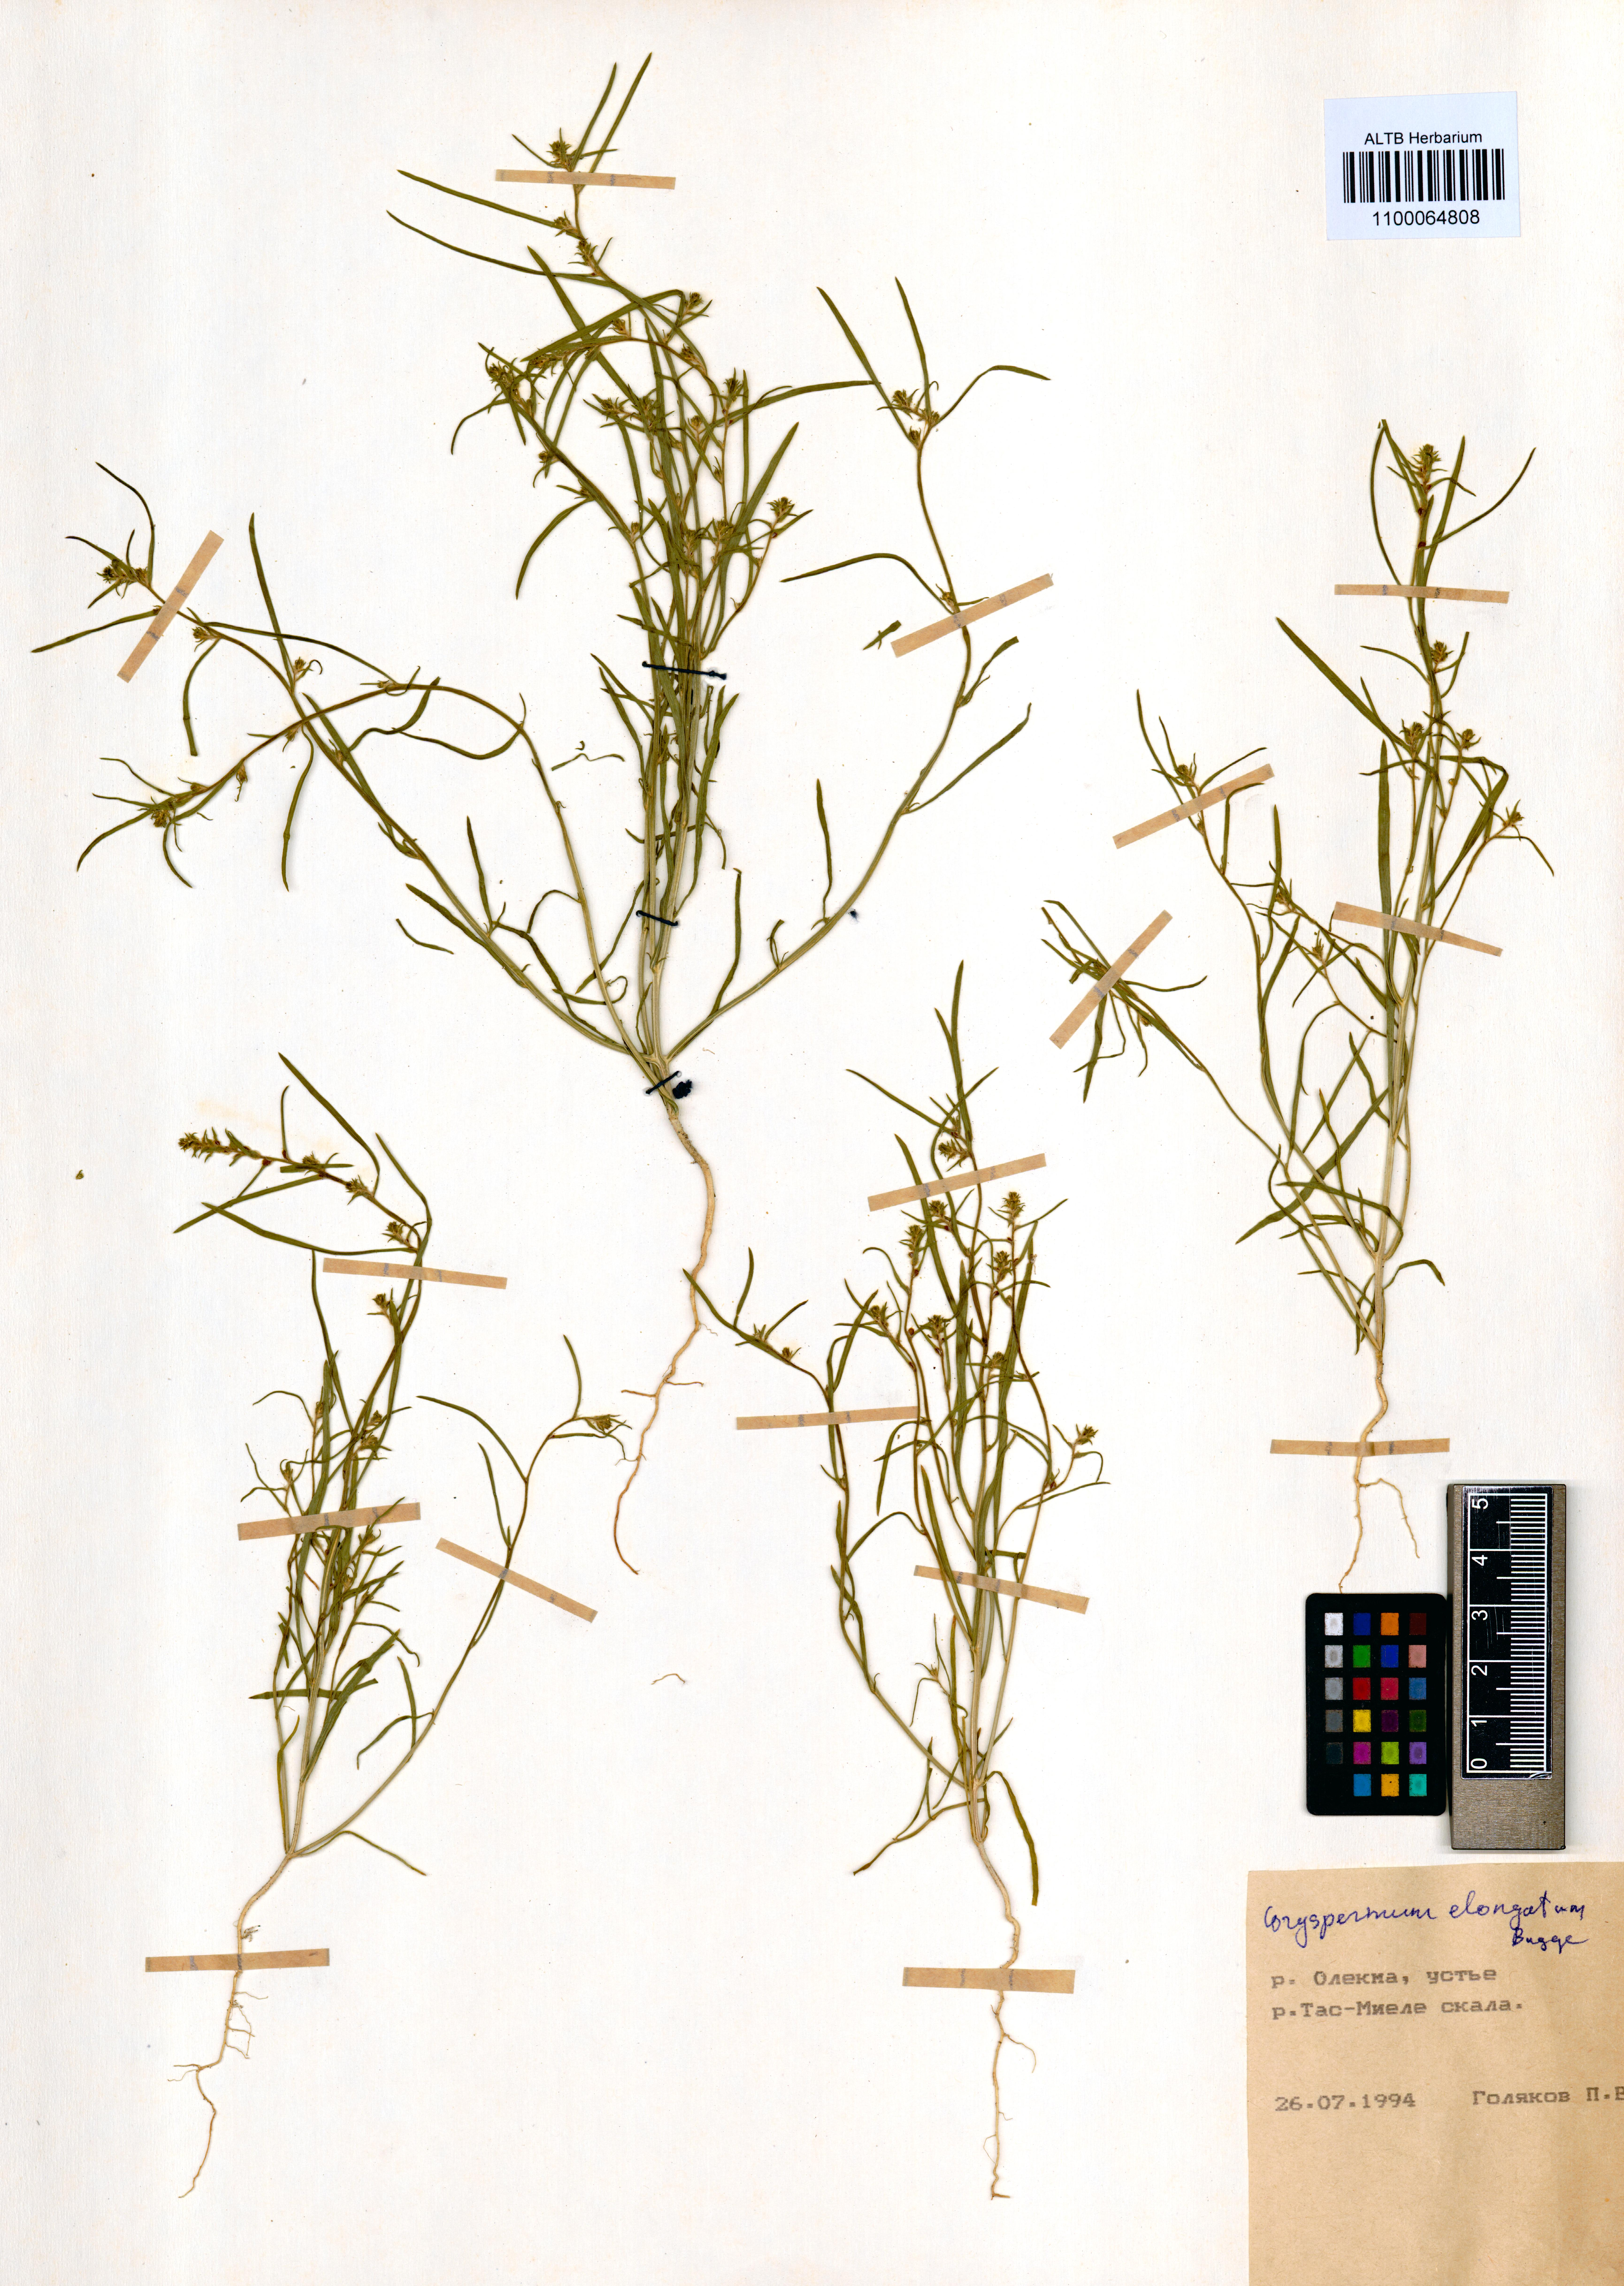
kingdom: Plantae
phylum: Tracheophyta
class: Magnoliopsida
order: Caryophyllales
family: Amaranthaceae
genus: Corispermum
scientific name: Corispermum elongatum
